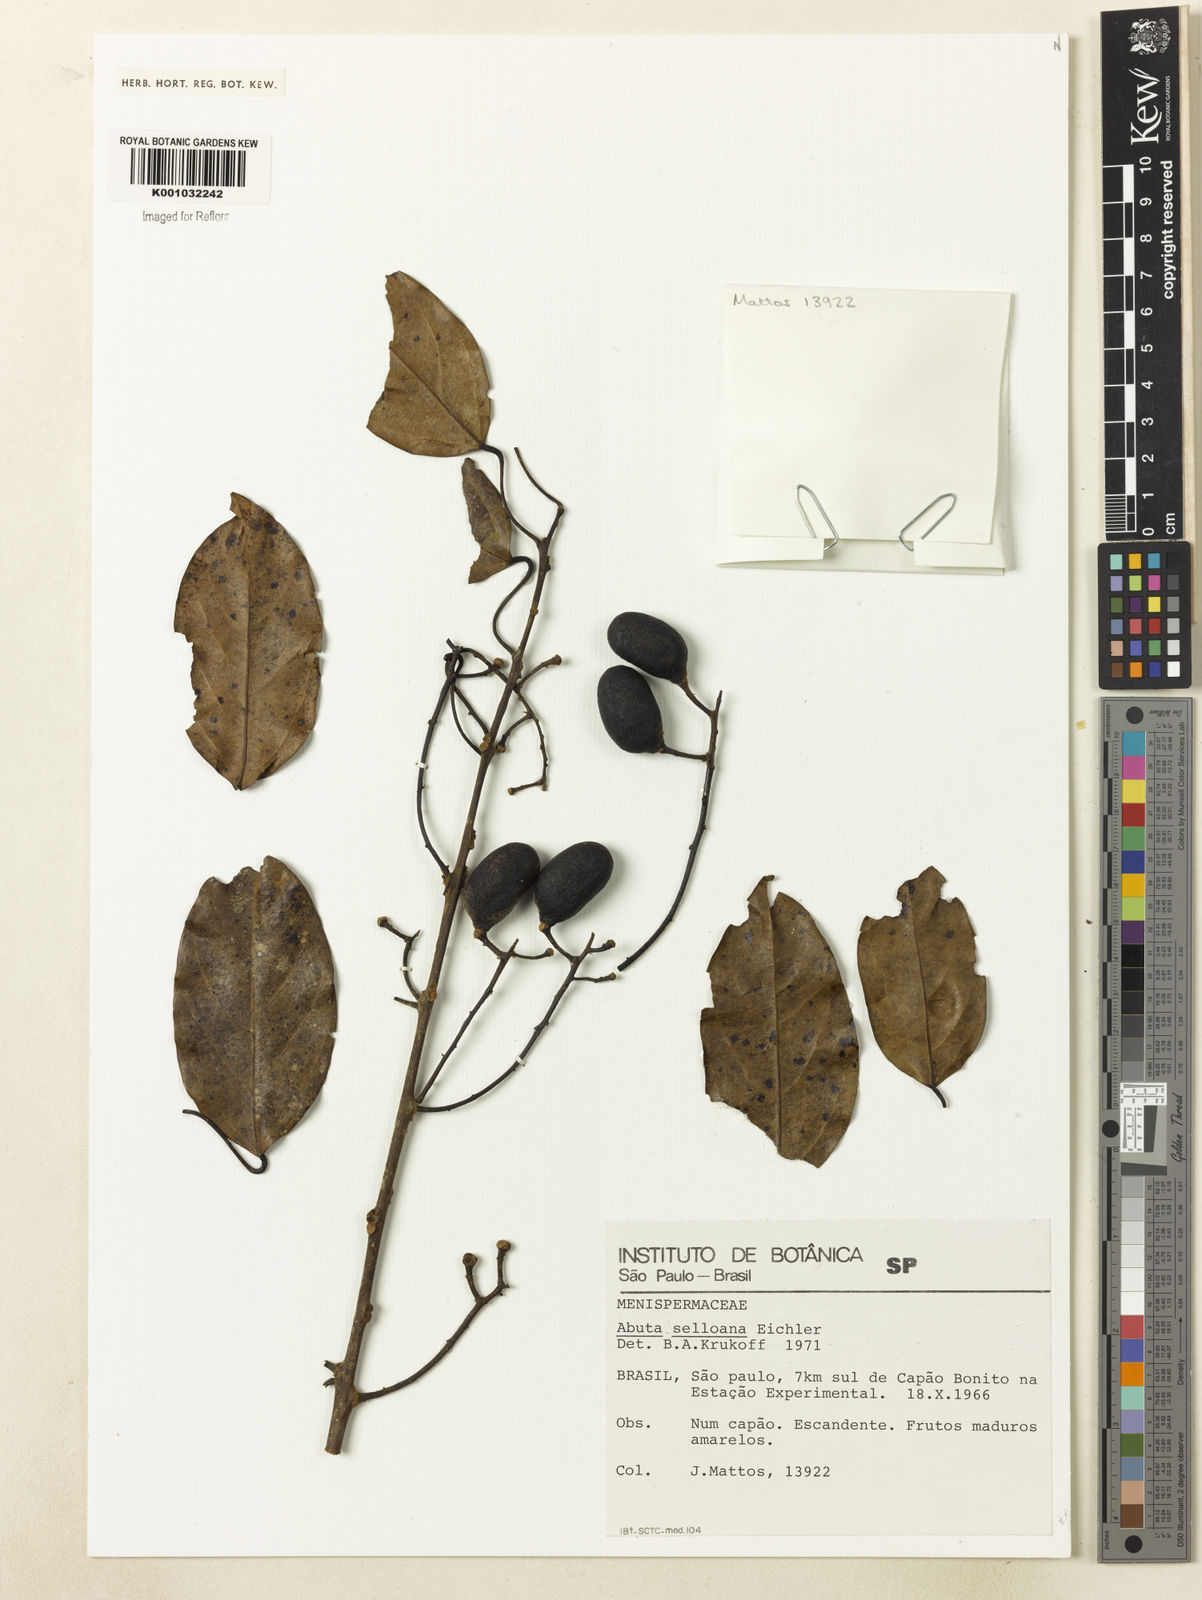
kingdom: Plantae
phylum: Tracheophyta
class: Magnoliopsida
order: Ranunculales
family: Menispermaceae
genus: Abuta
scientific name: Abuta selloana
